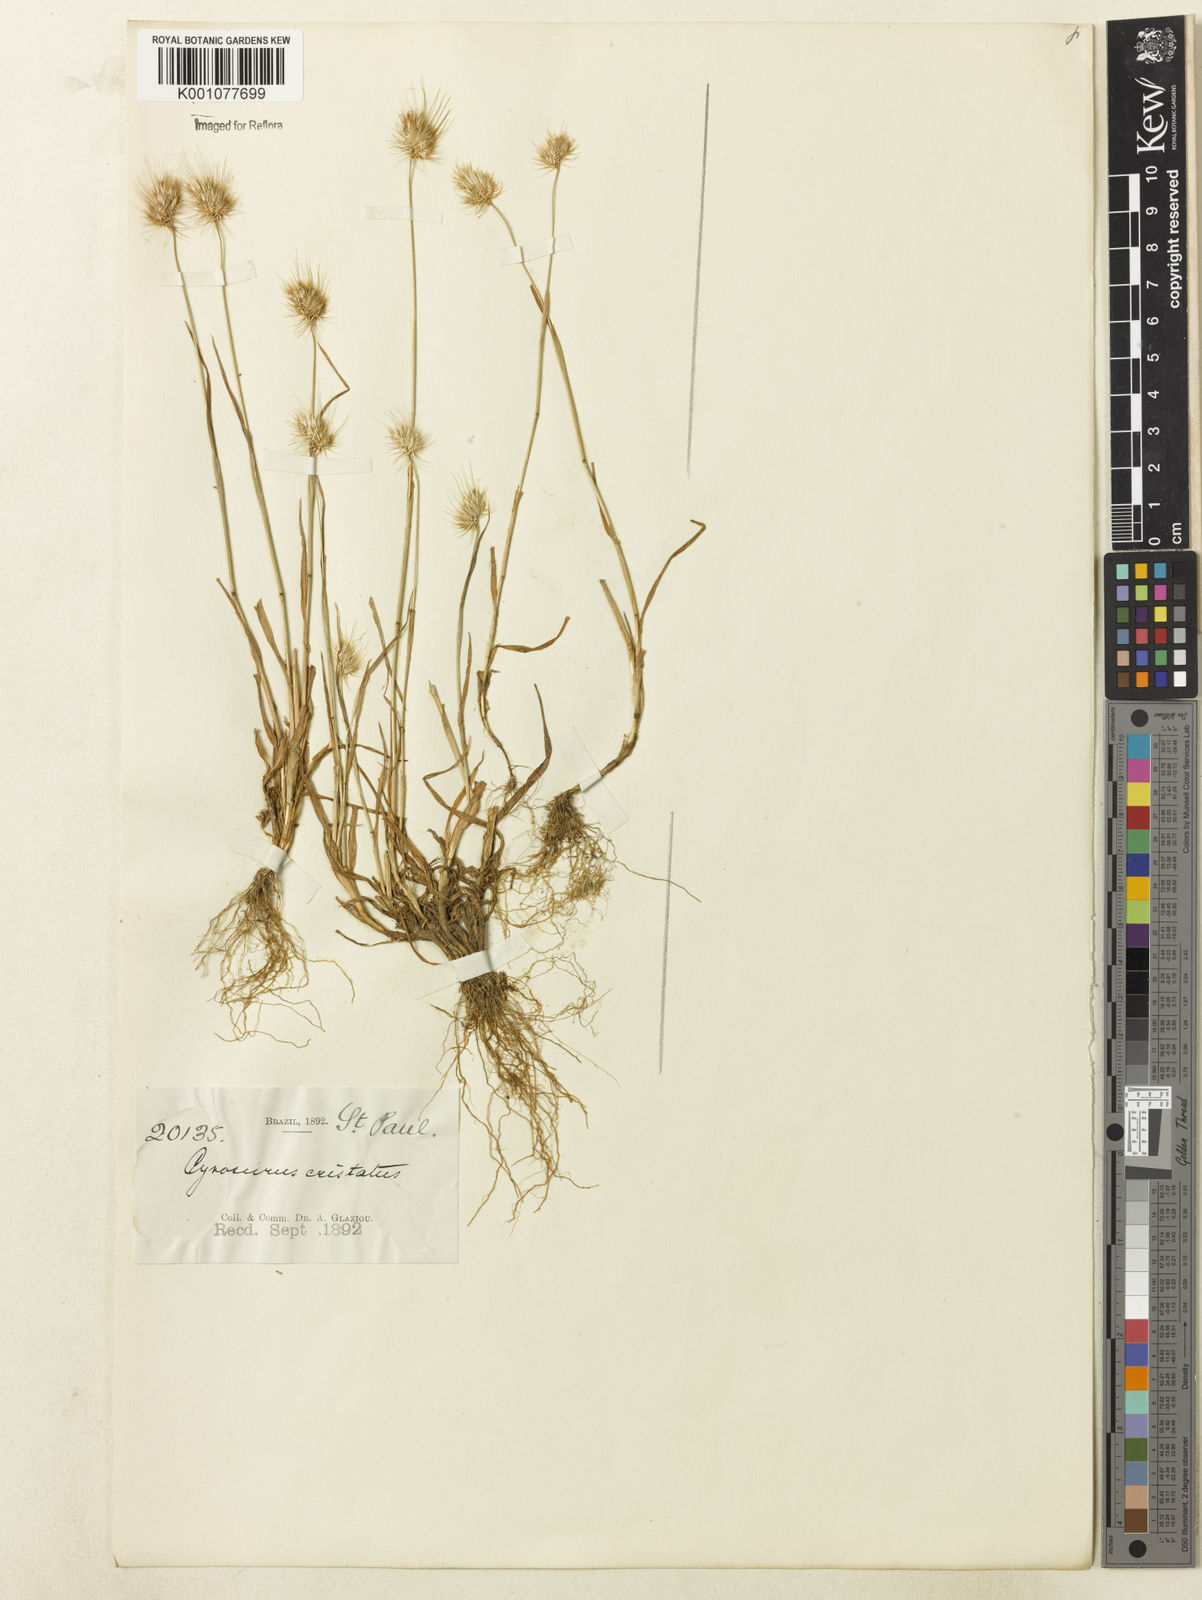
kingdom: Plantae
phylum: Tracheophyta
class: Liliopsida
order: Poales
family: Poaceae
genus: Cynosurus
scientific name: Cynosurus echinatus
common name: Rough dog's-tail
